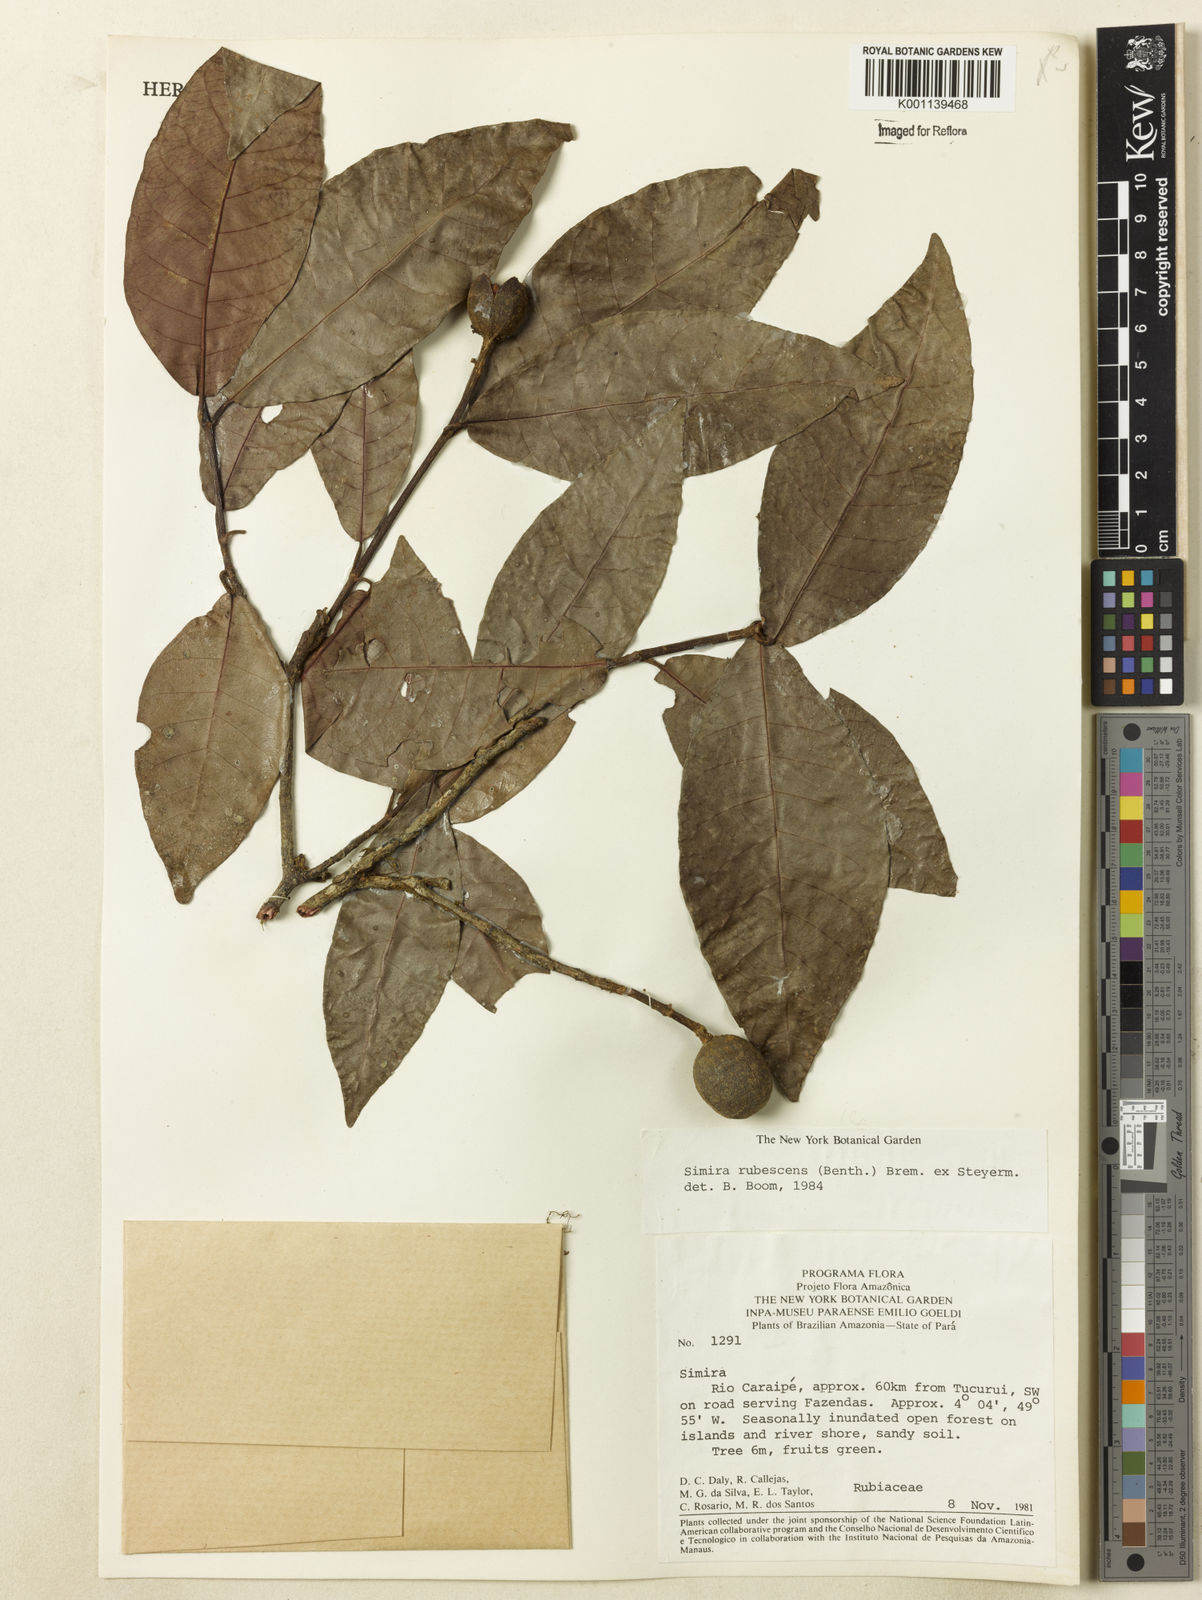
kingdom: Plantae
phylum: Tracheophyta
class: Magnoliopsida
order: Gentianales
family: Rubiaceae
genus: Simira
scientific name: Simira rubescens
